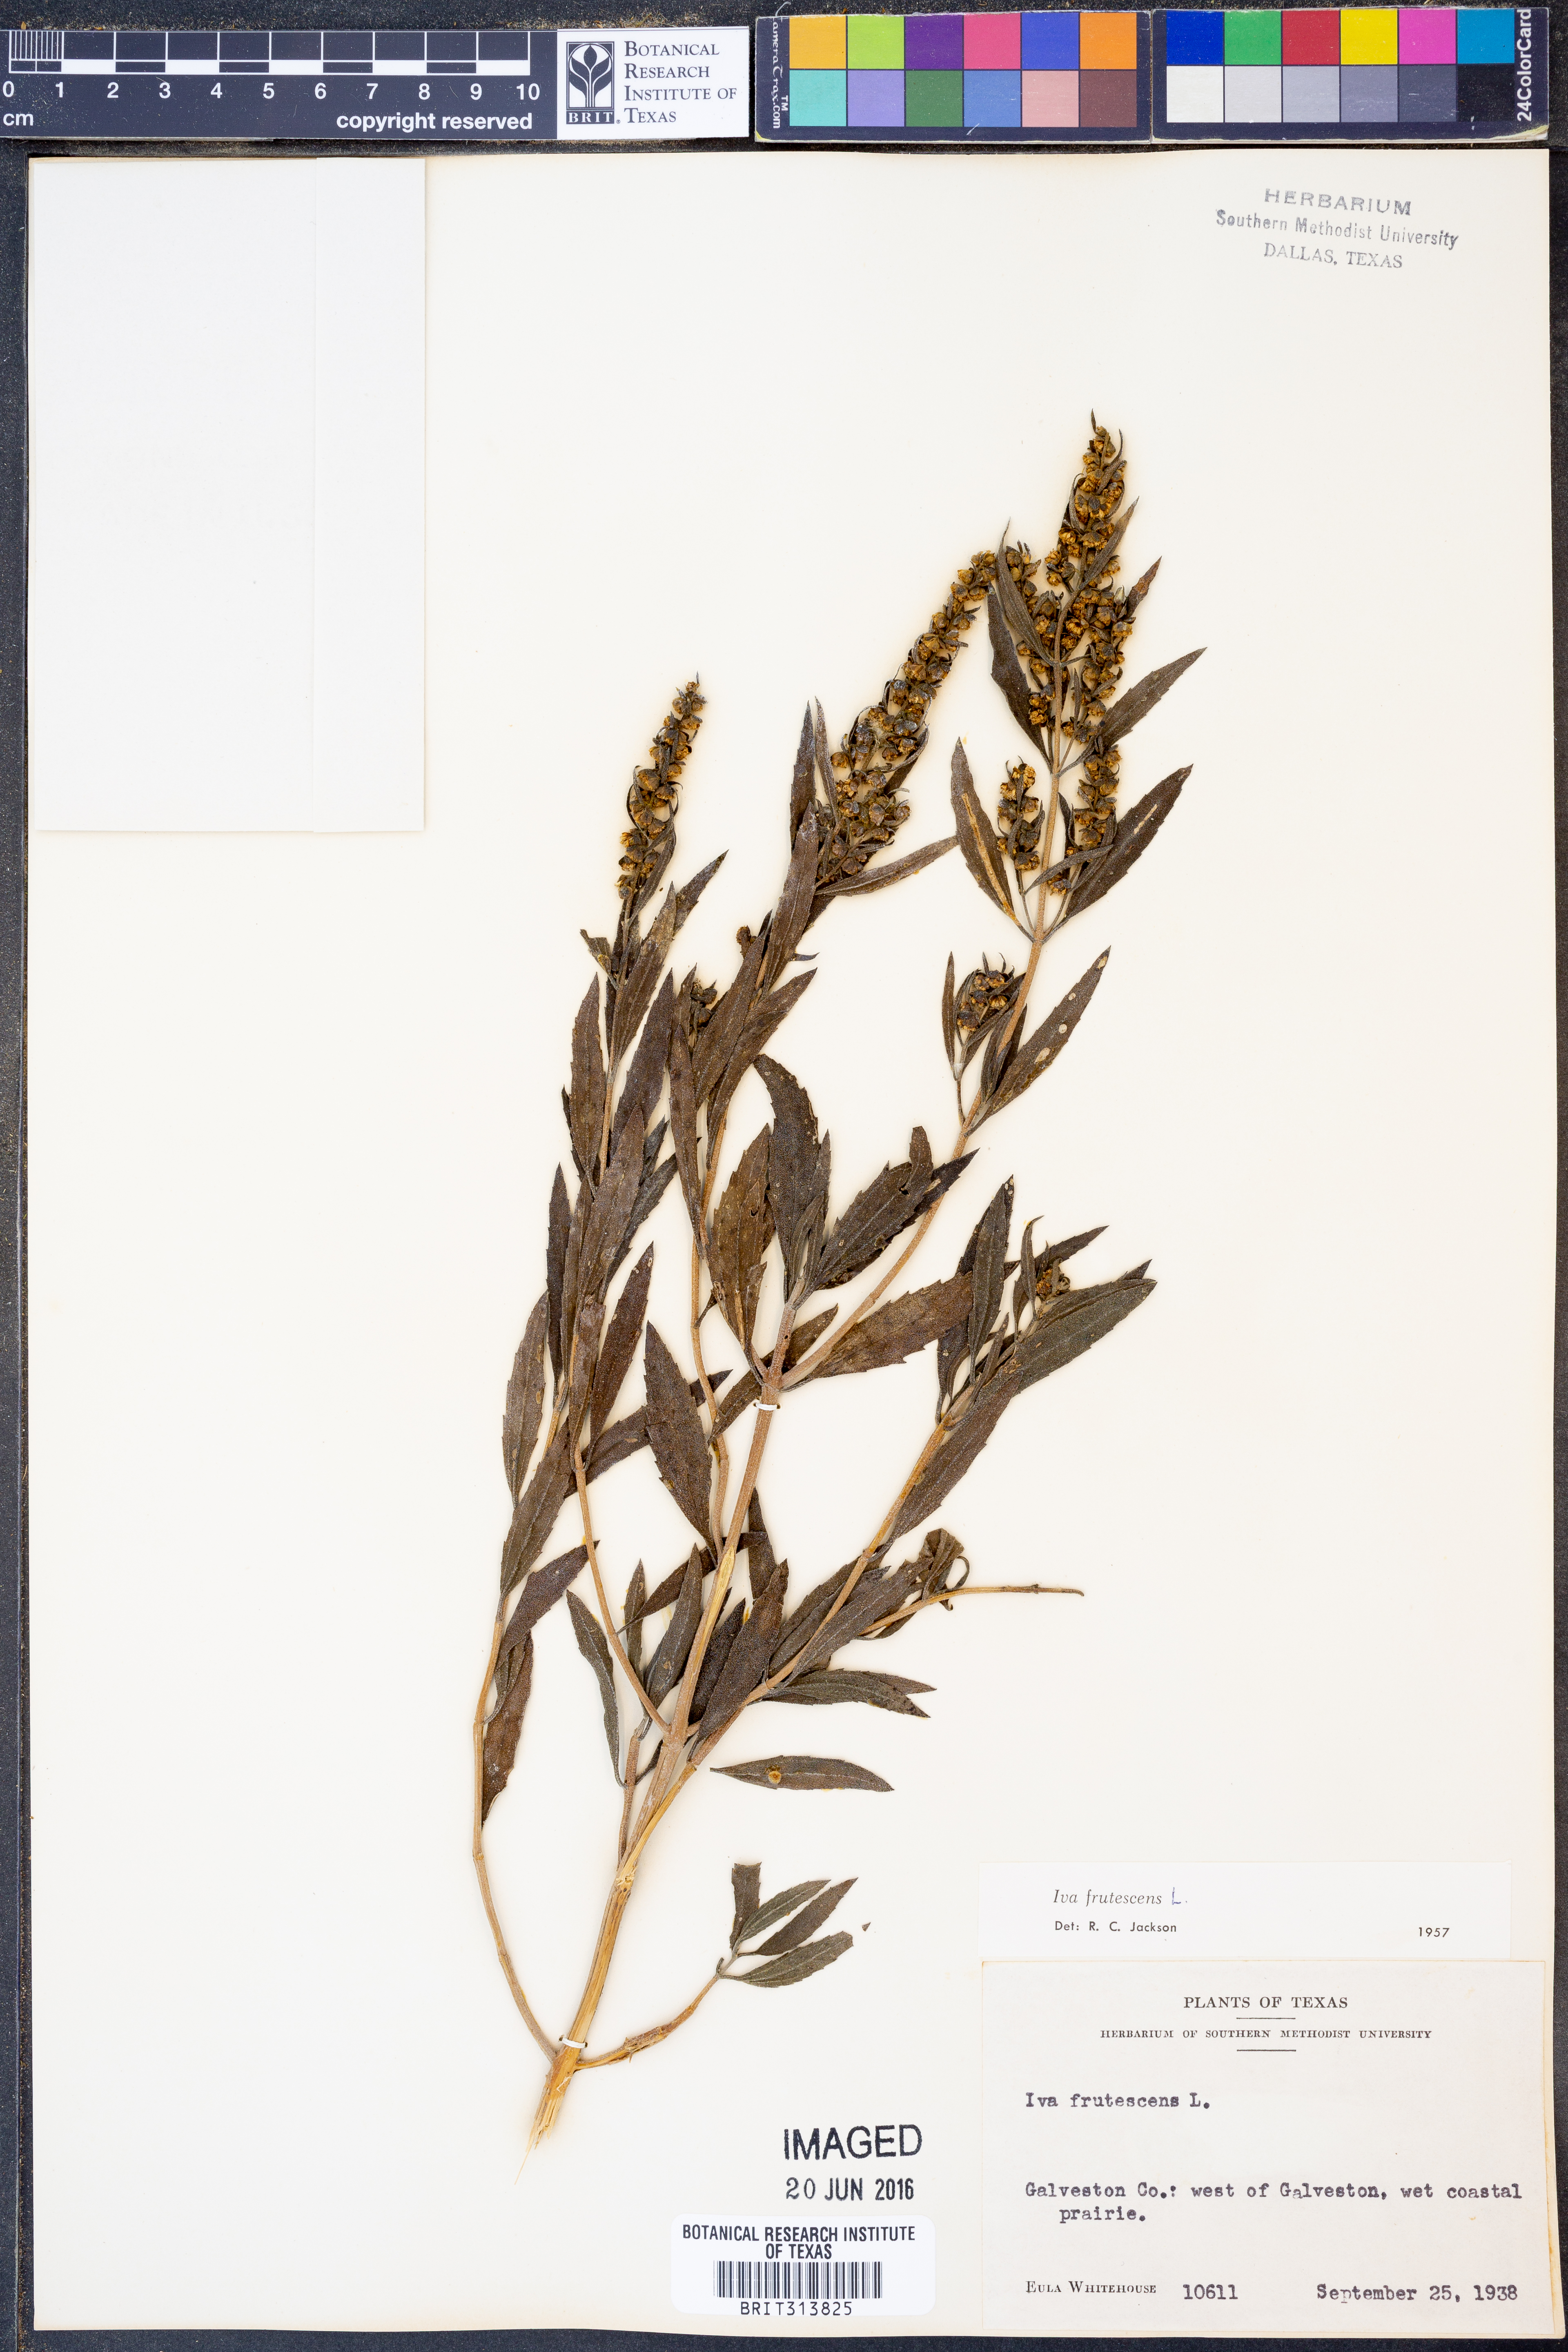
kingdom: Plantae
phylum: Tracheophyta
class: Magnoliopsida
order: Asterales
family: Asteraceae
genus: Iva
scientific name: Iva frutescens
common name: Big-leaved marsh-elder
